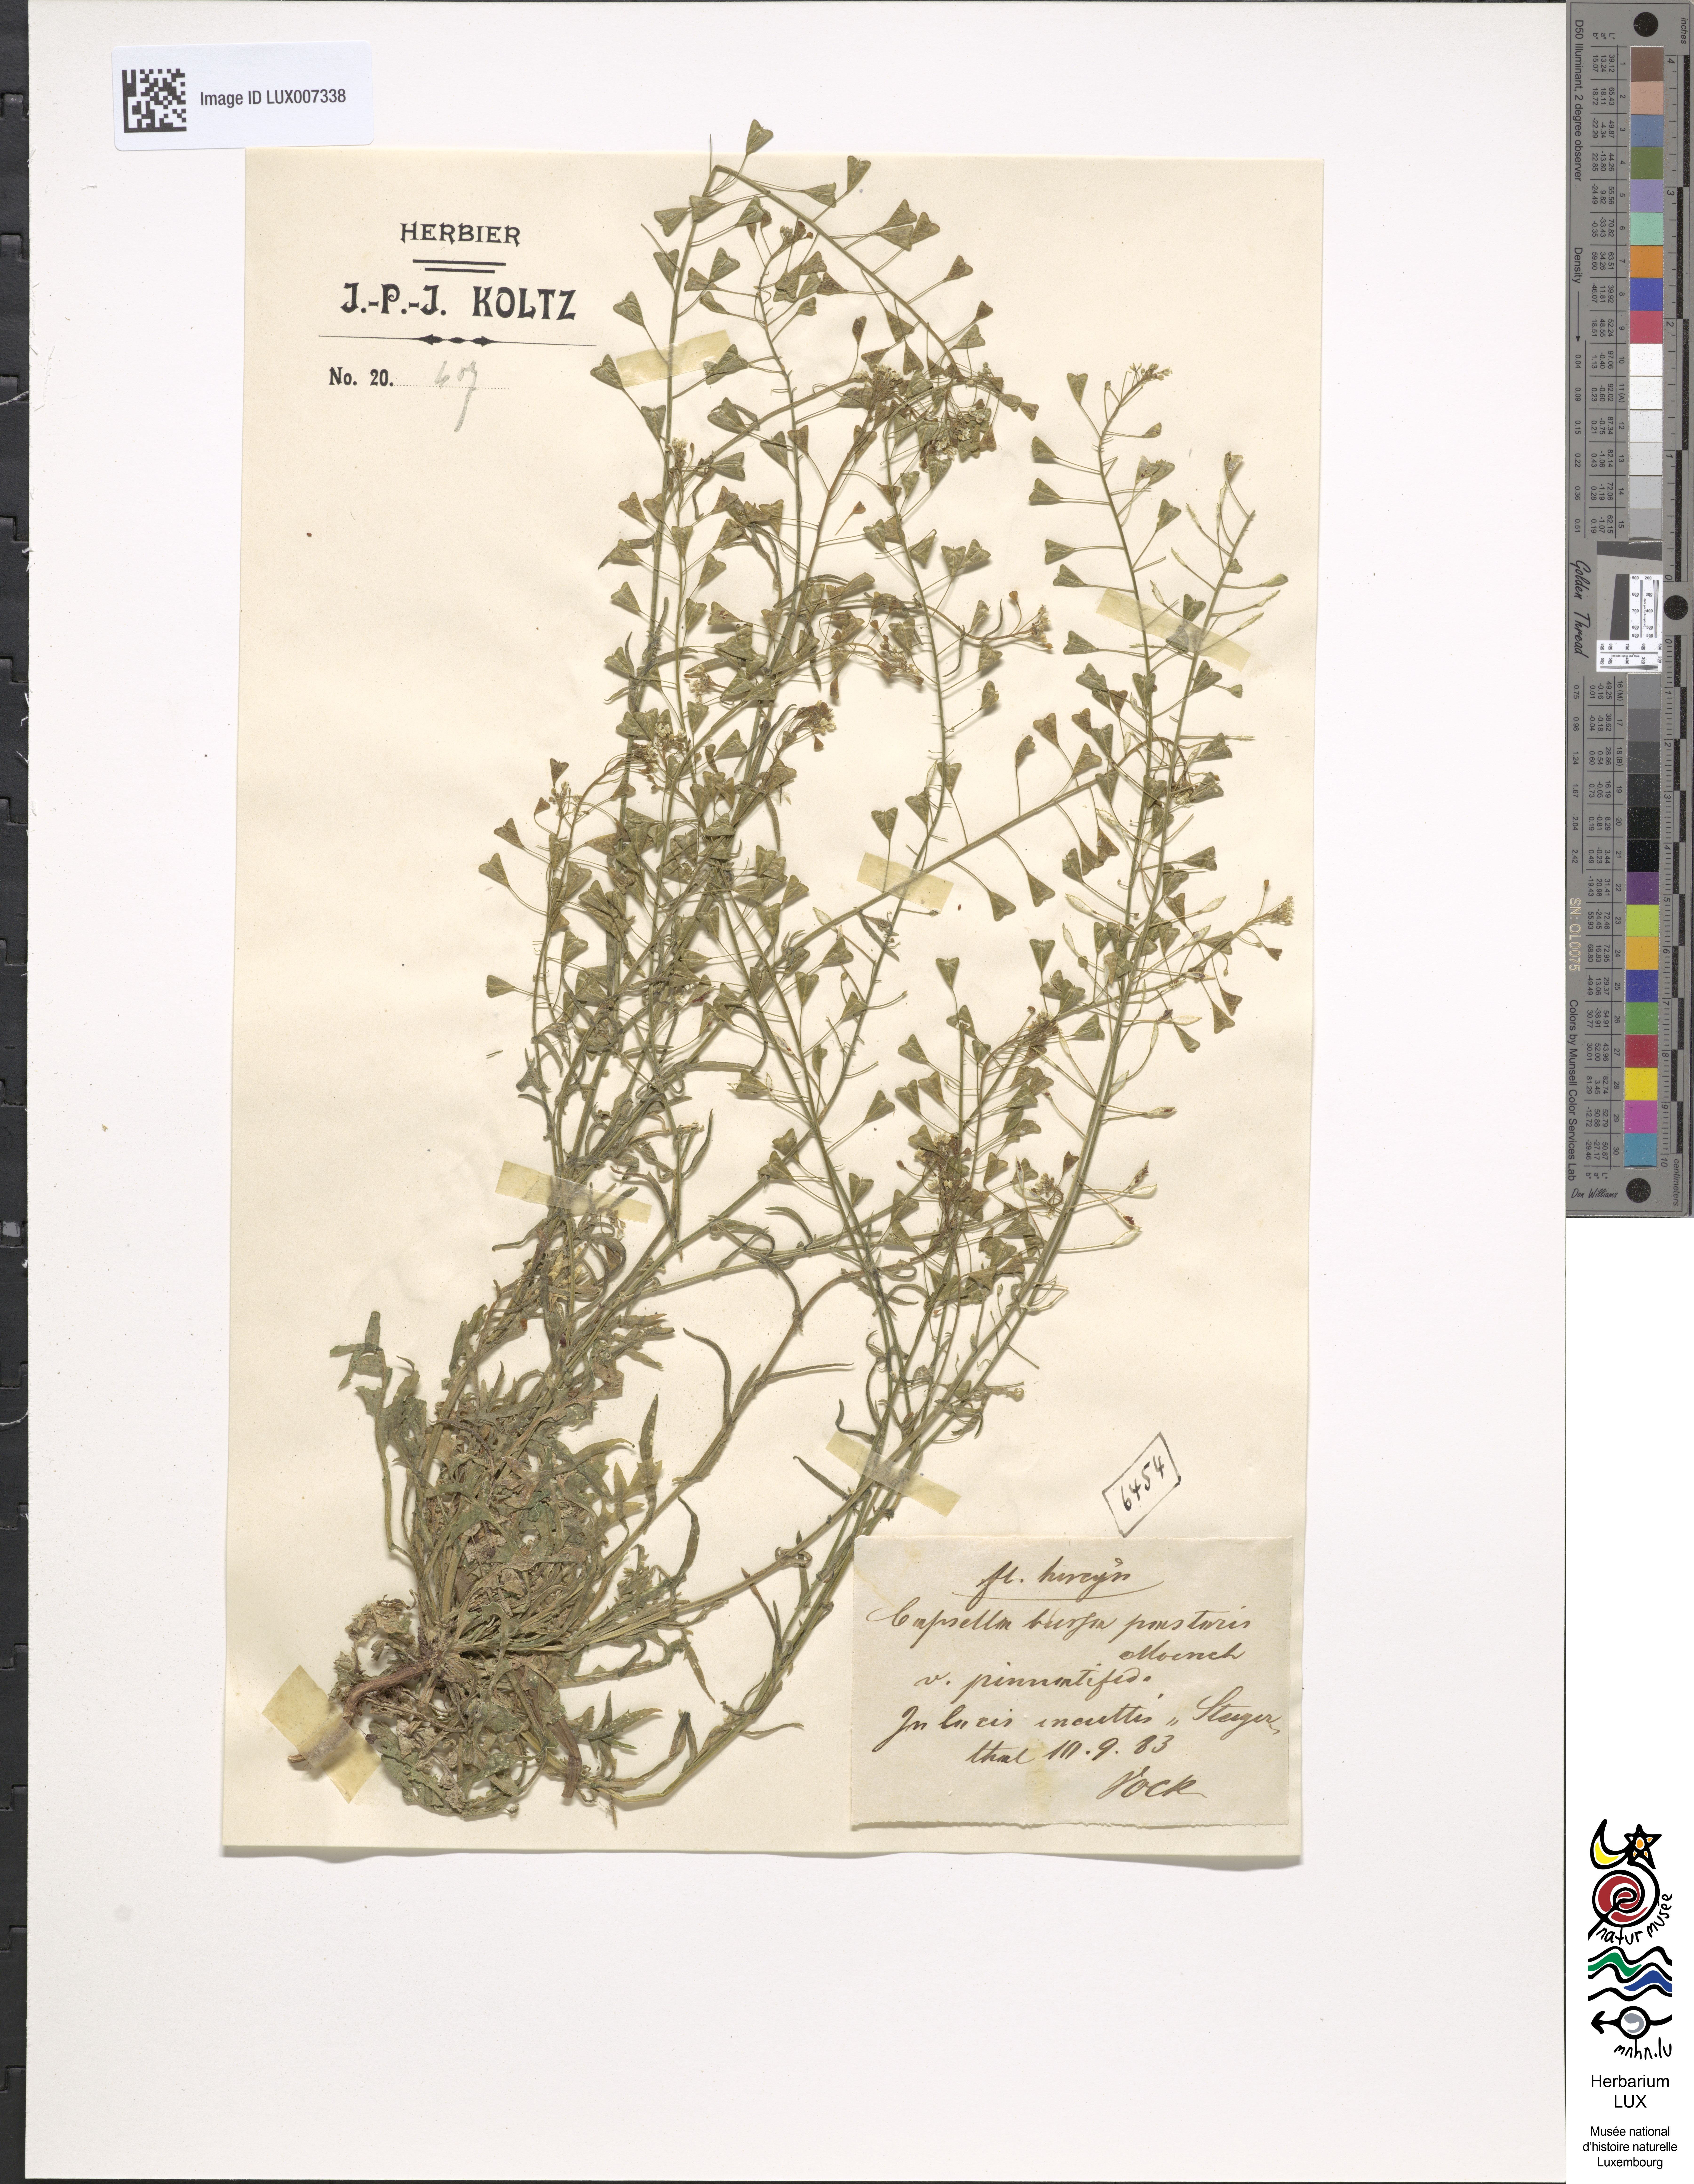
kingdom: Plantae
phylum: Tracheophyta
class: Magnoliopsida
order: Brassicales
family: Brassicaceae
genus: Capsella
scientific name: Capsella bursa-pastoris
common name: Shepherd's purse
